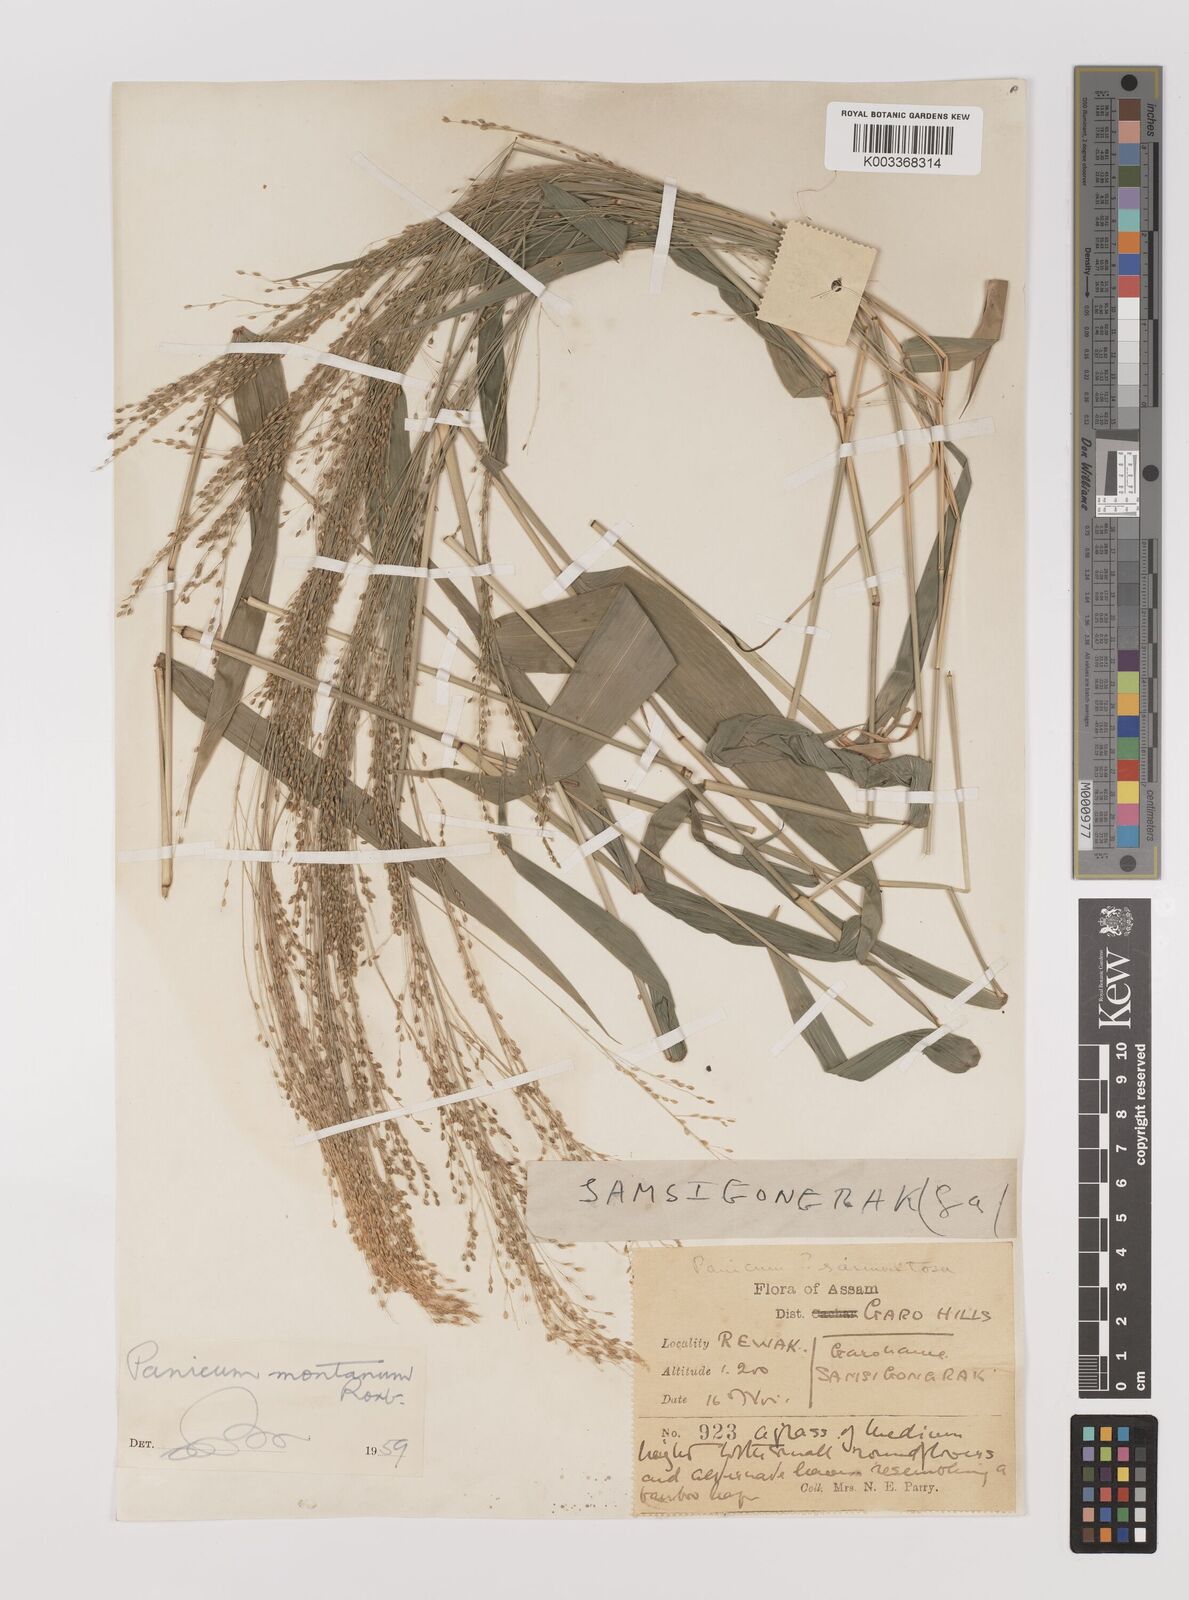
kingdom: Plantae
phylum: Tracheophyta
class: Liliopsida
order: Poales
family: Poaceae
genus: Panicum
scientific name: Panicum notatum
